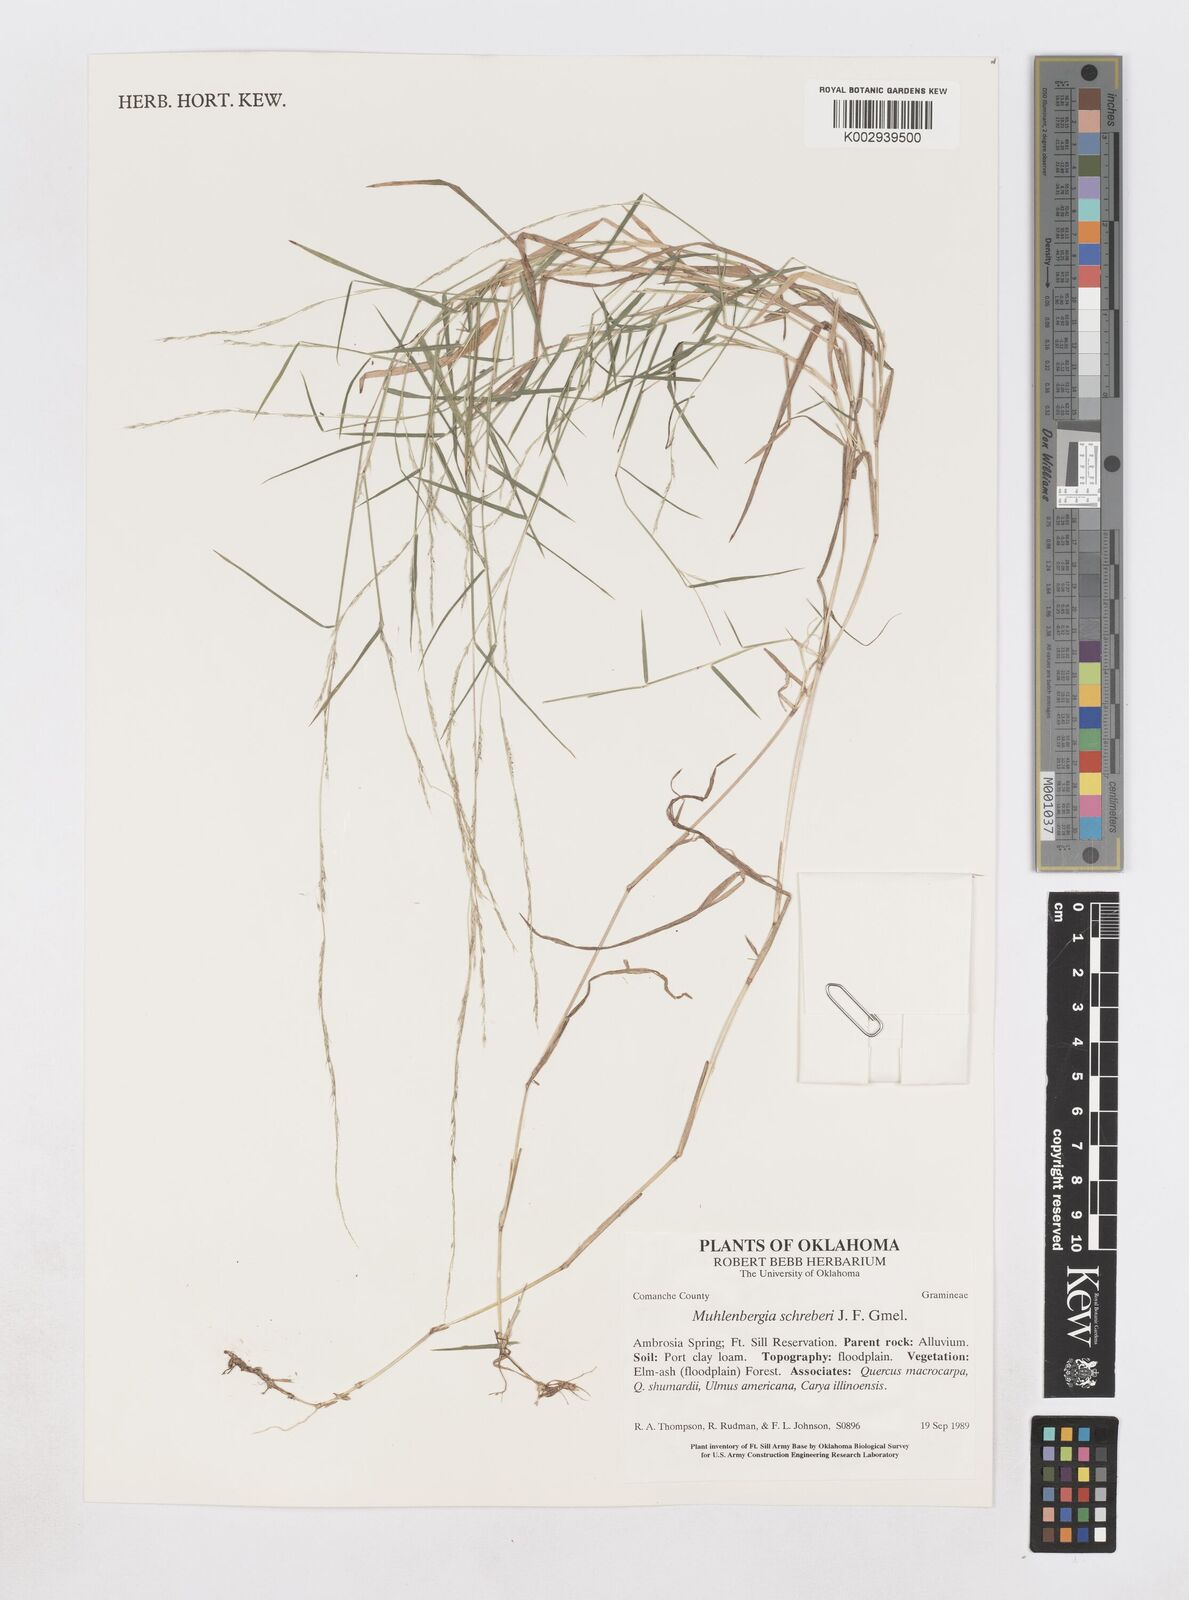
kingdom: Plantae
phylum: Tracheophyta
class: Liliopsida
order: Poales
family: Poaceae
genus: Muhlenbergia
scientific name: Muhlenbergia schreberi
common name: Nimblewill
